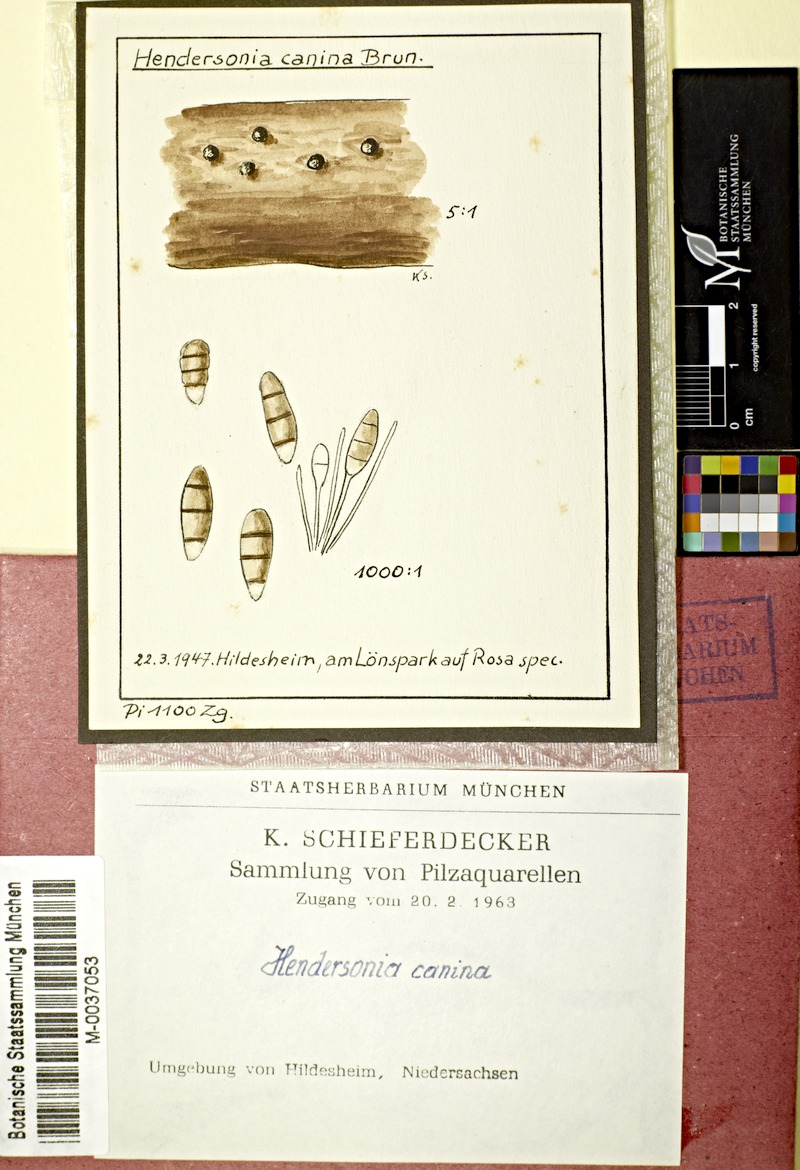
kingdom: Fungi
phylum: Ascomycota
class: Sordariomycetes
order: Amphisphaeriales
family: Sporocadaceae
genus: Seimatosporium
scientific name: Seimatosporium caninum
